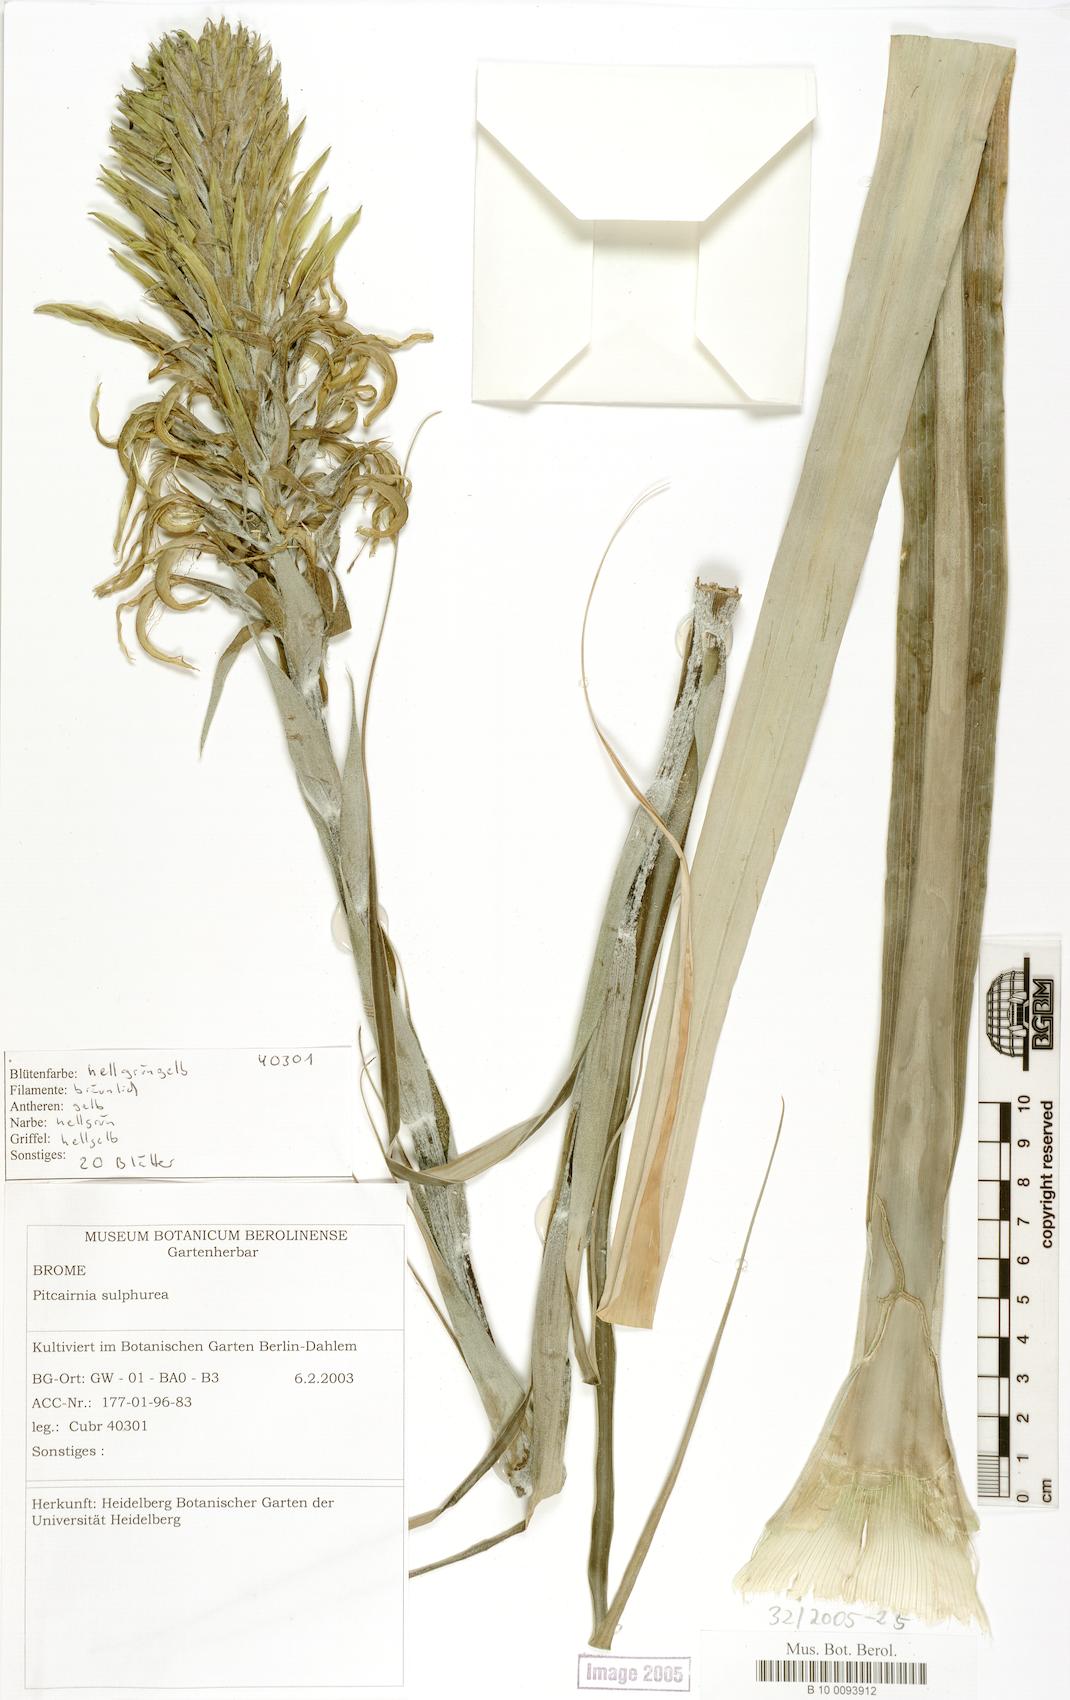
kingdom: Plantae
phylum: Tracheophyta
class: Liliopsida
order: Poales
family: Bromeliaceae
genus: Pitcairnia
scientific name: Pitcairnia sulphurea
